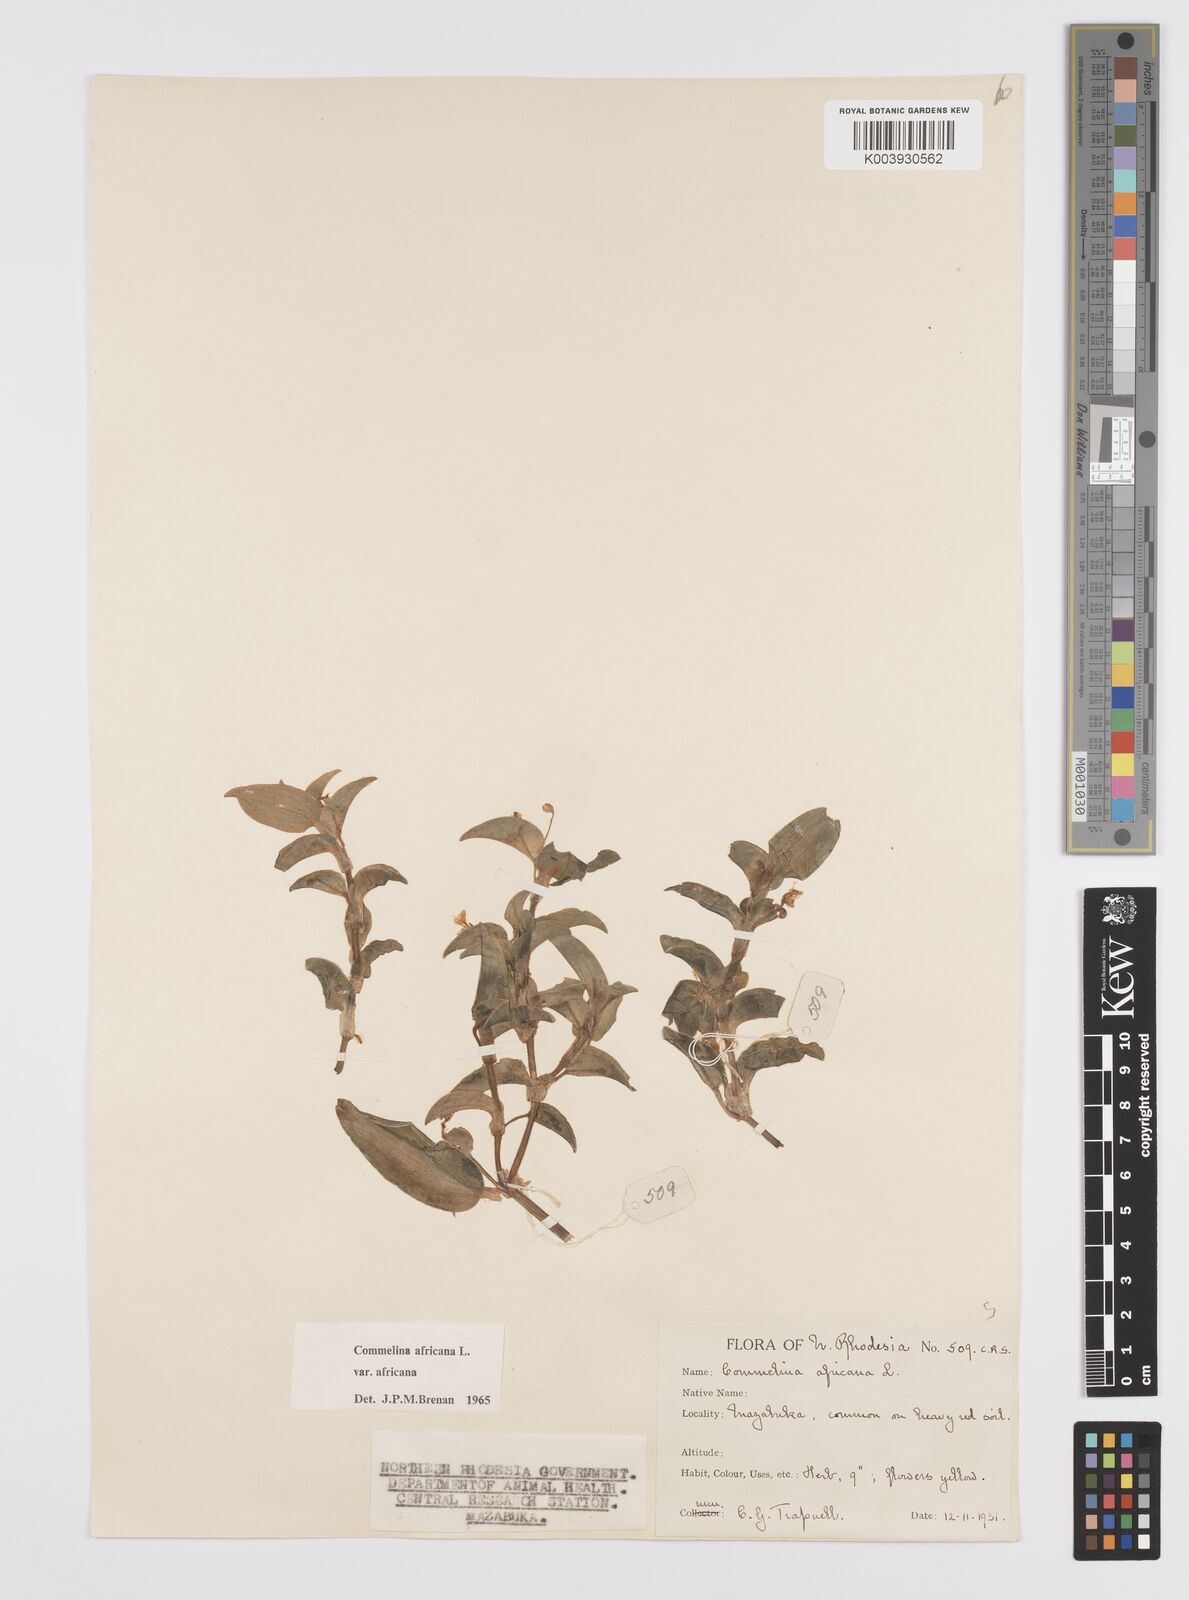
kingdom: Plantae
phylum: Tracheophyta
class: Liliopsida
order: Commelinales
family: Commelinaceae
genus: Commelina
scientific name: Commelina africana
